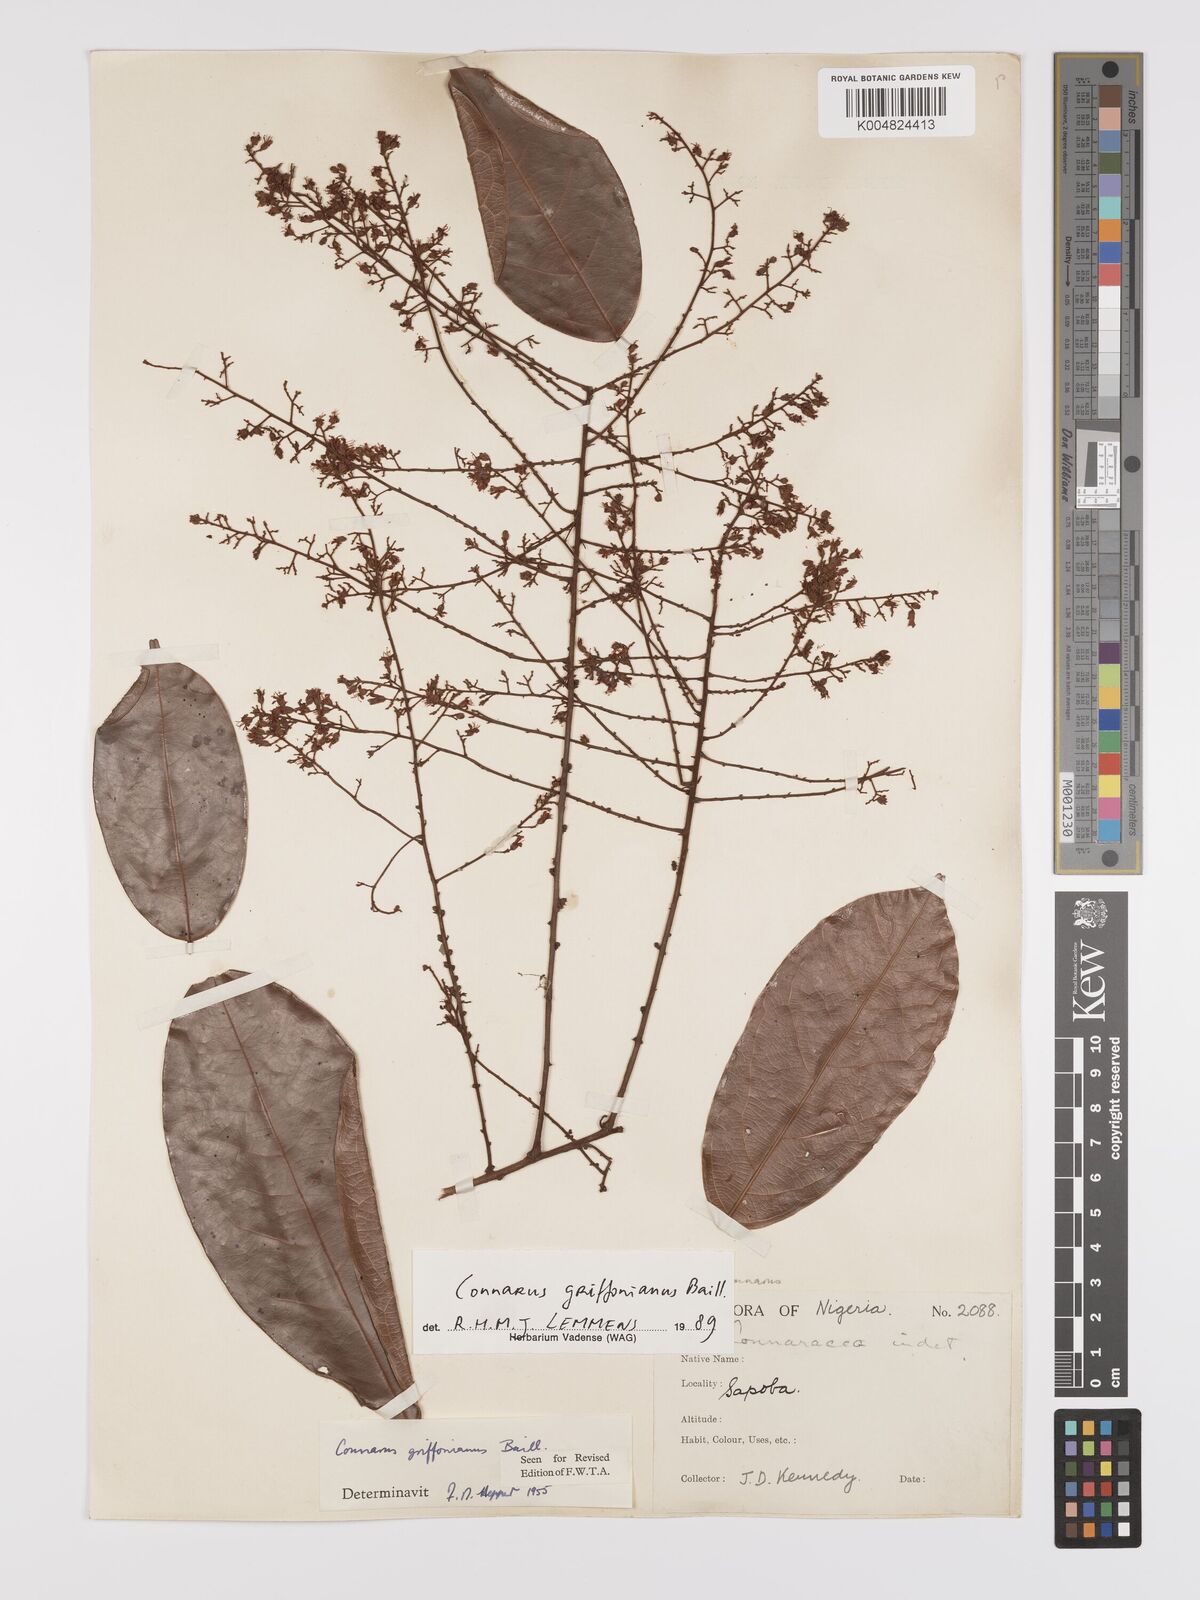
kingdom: Plantae
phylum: Tracheophyta
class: Magnoliopsida
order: Oxalidales
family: Connaraceae
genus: Connarus
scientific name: Connarus griffonianus
